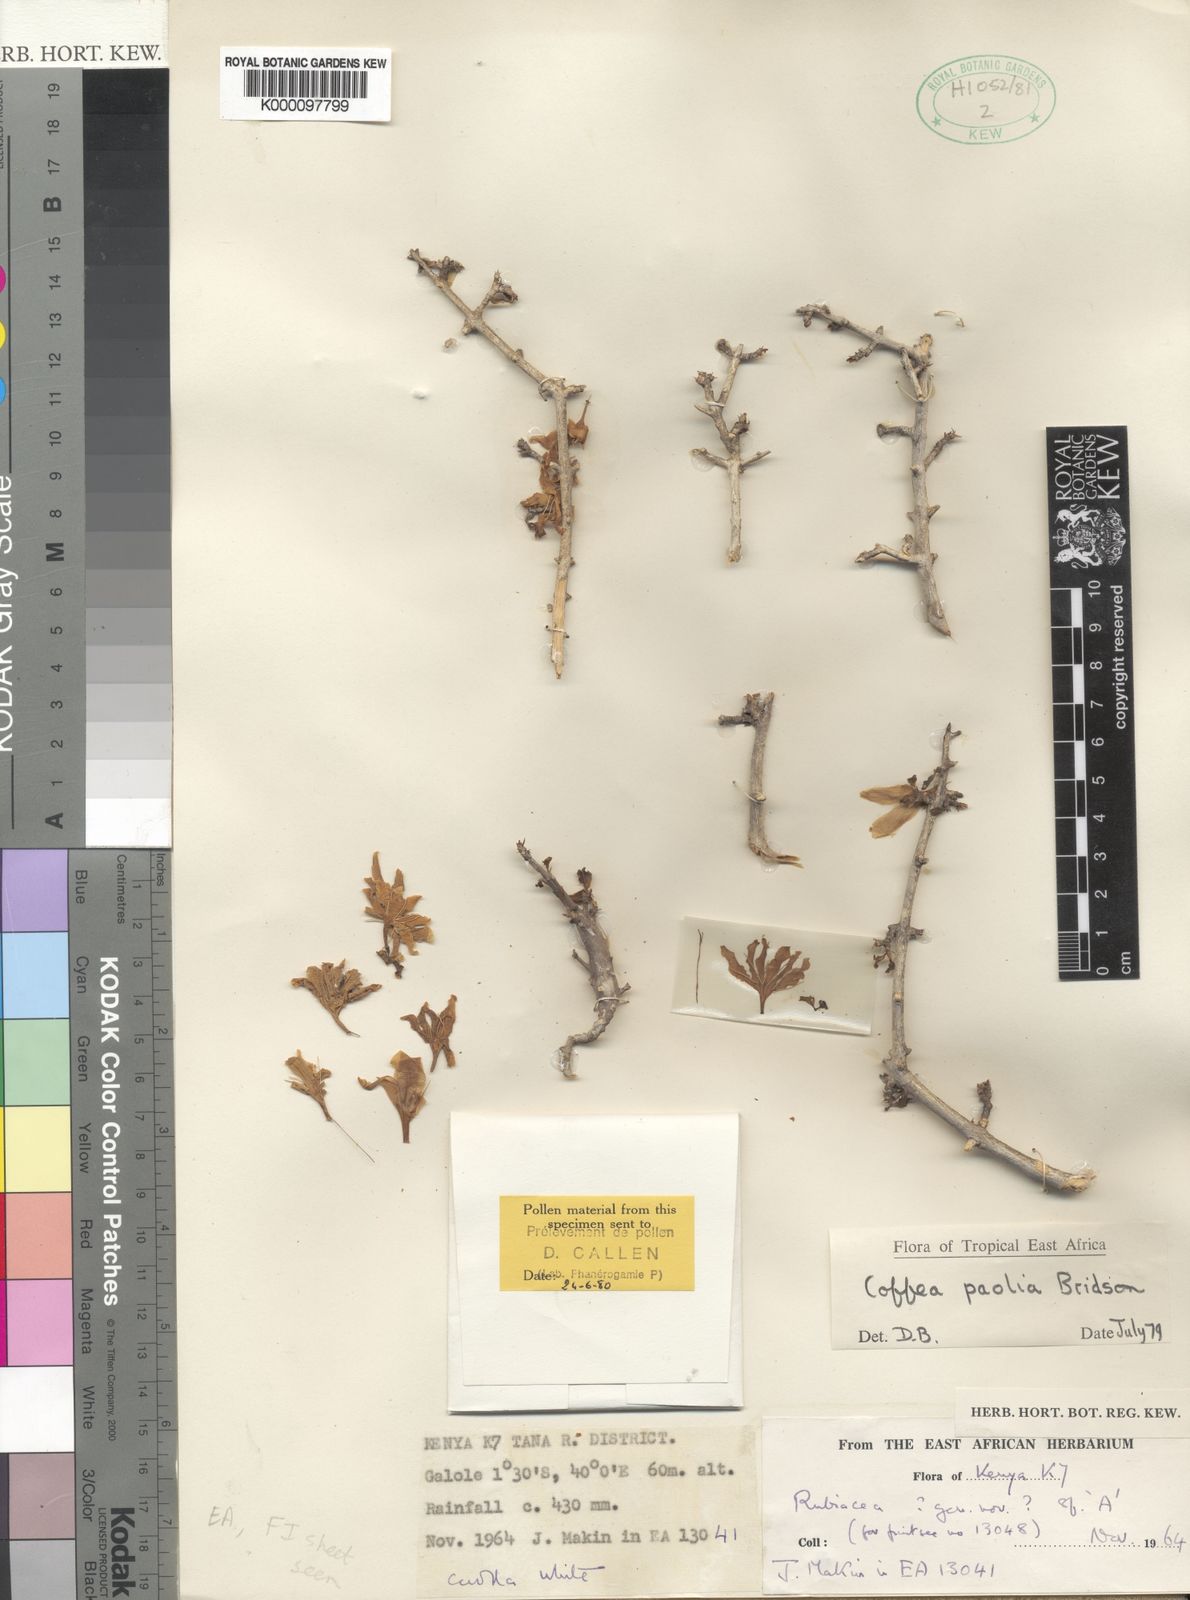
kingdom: Plantae
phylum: Tracheophyta
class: Magnoliopsida
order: Gentianales
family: Rubiaceae
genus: Coffea
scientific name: Coffea rhamnifolia
